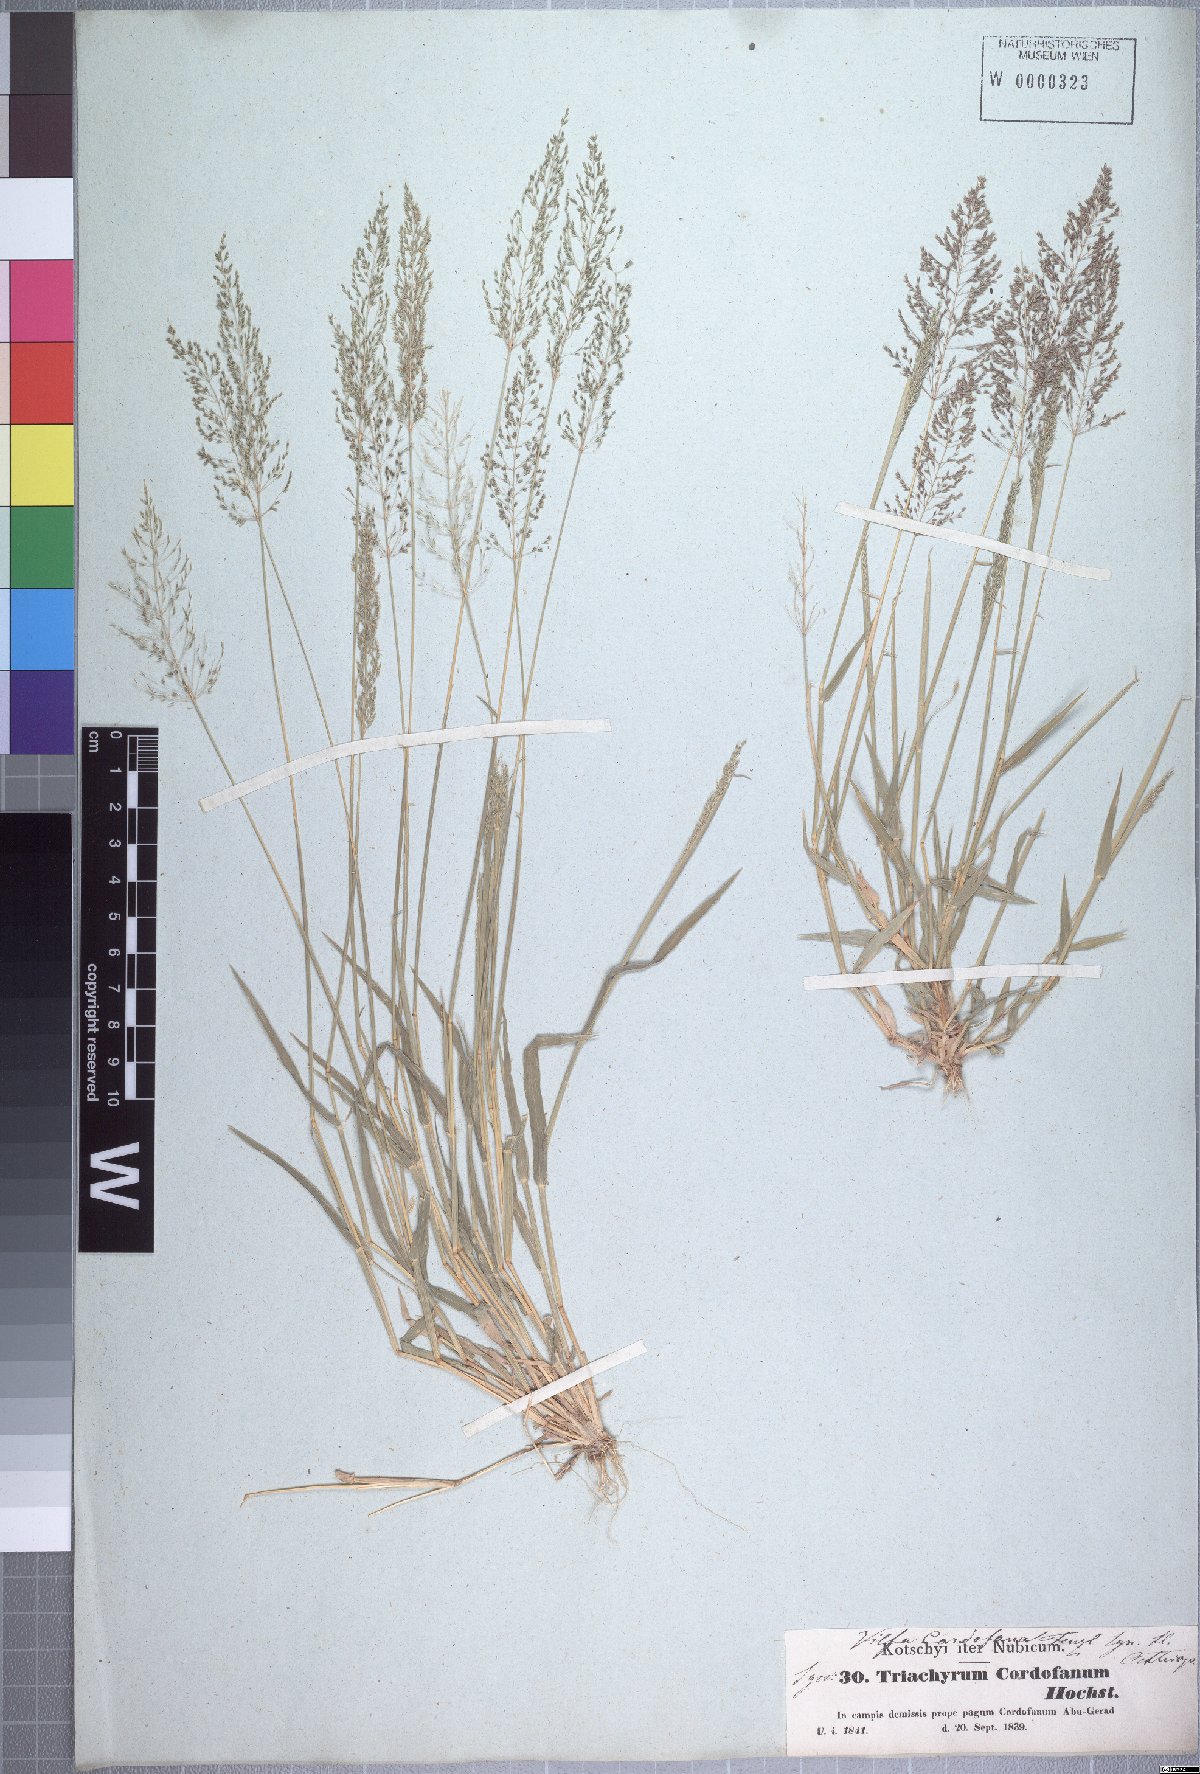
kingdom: Plantae
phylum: Tracheophyta
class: Liliopsida
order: Poales
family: Poaceae
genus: Sporobolus
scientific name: Sporobolus cordofanus
